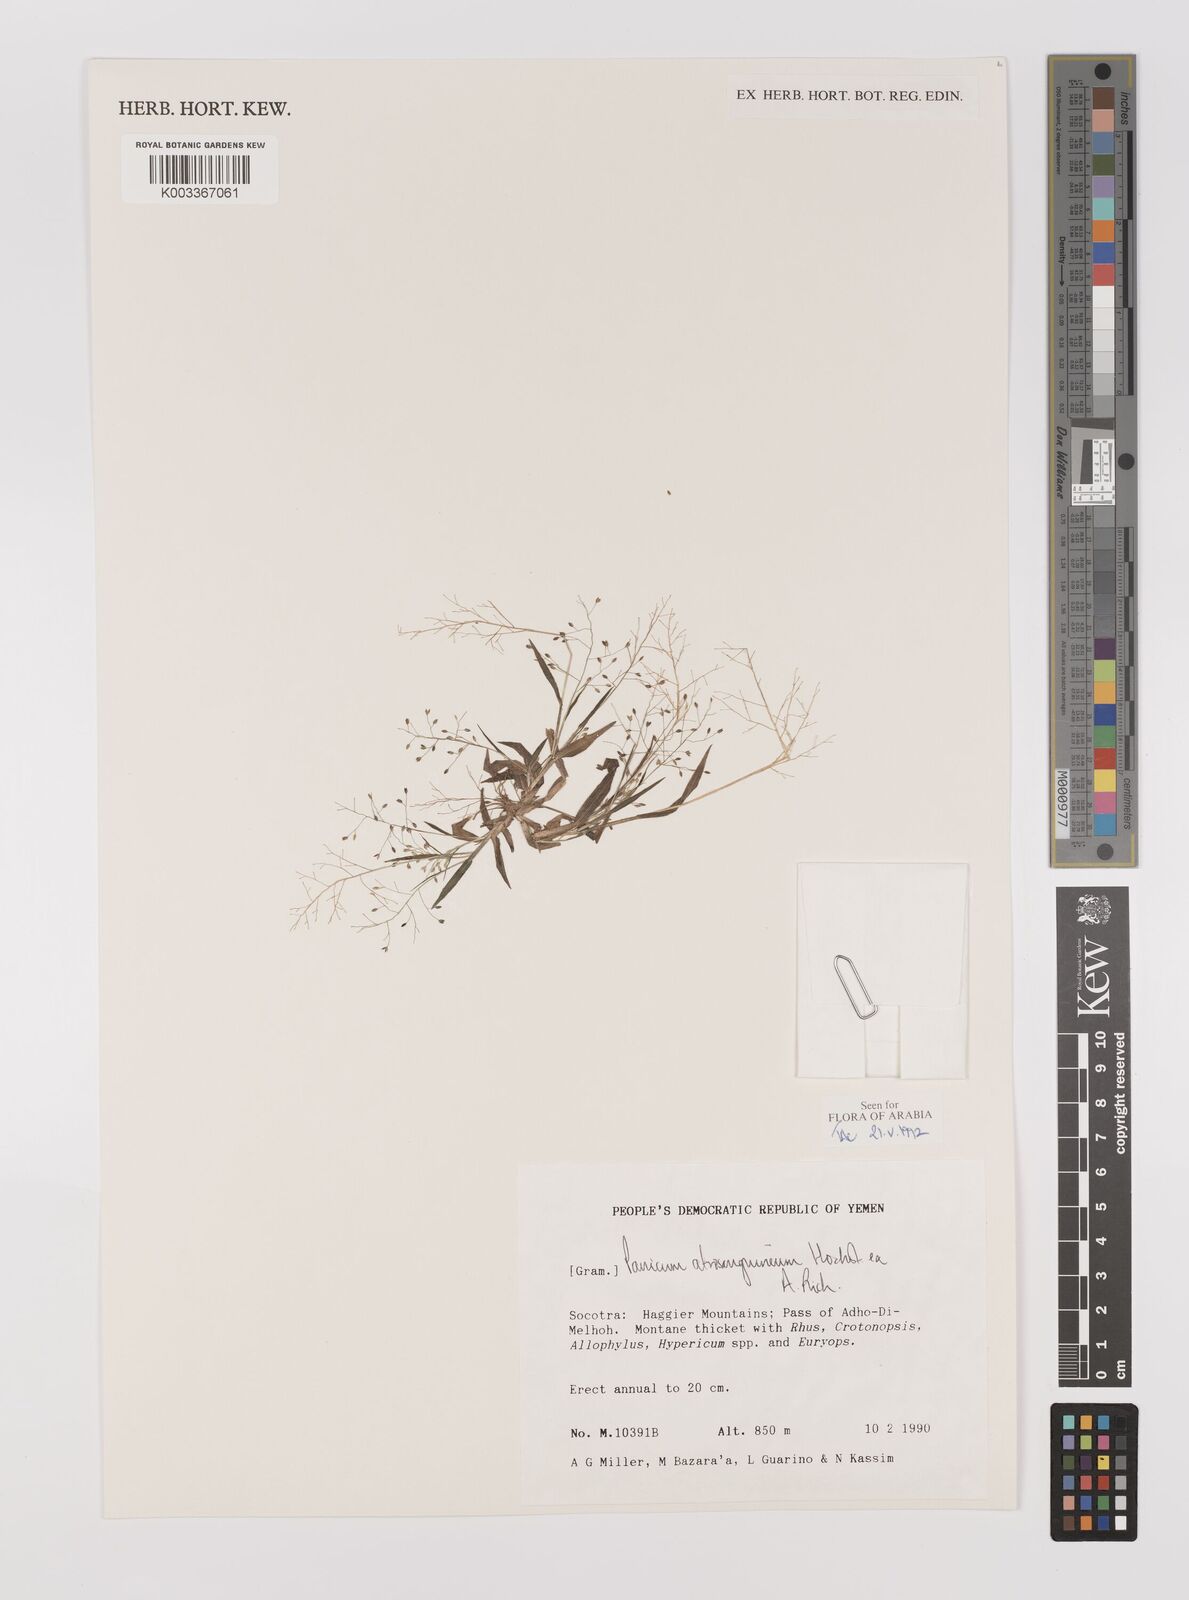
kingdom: Plantae
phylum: Tracheophyta
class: Liliopsida
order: Poales
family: Poaceae
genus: Panicum
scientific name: Panicum atrosanguineum
